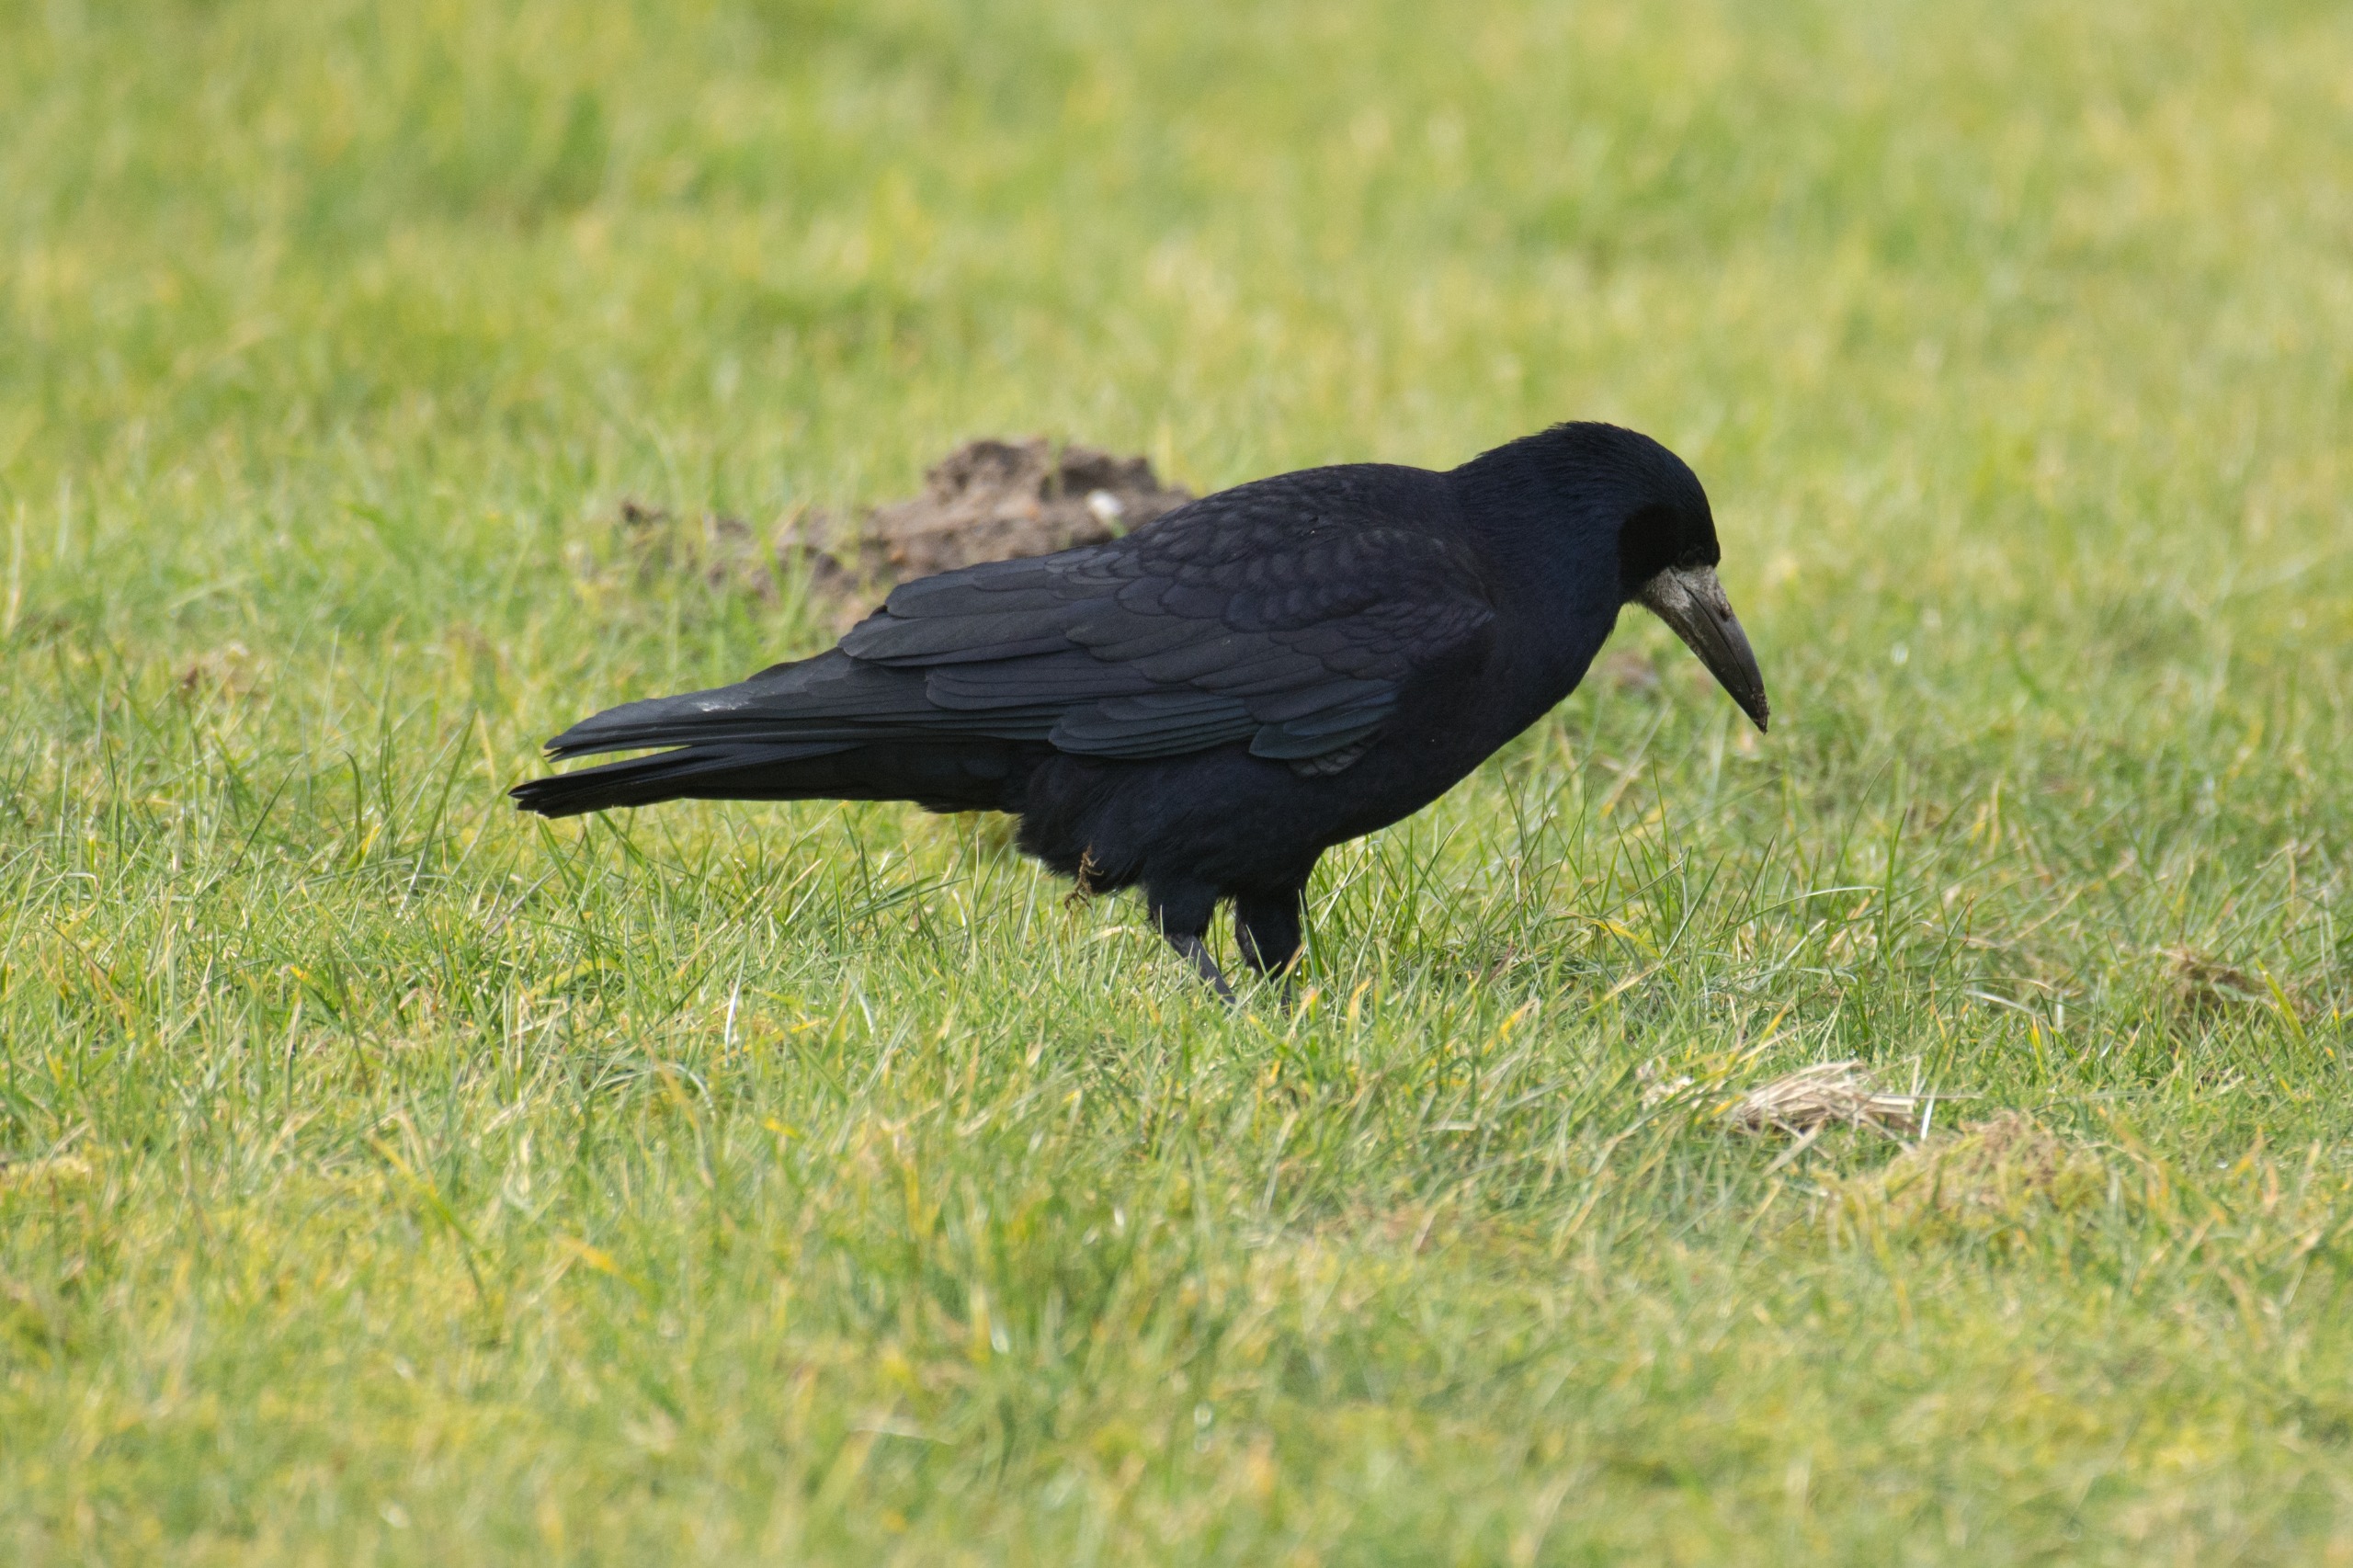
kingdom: Animalia
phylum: Chordata
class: Aves
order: Passeriformes
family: Corvidae
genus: Corvus
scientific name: Corvus frugilegus
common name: Råge
